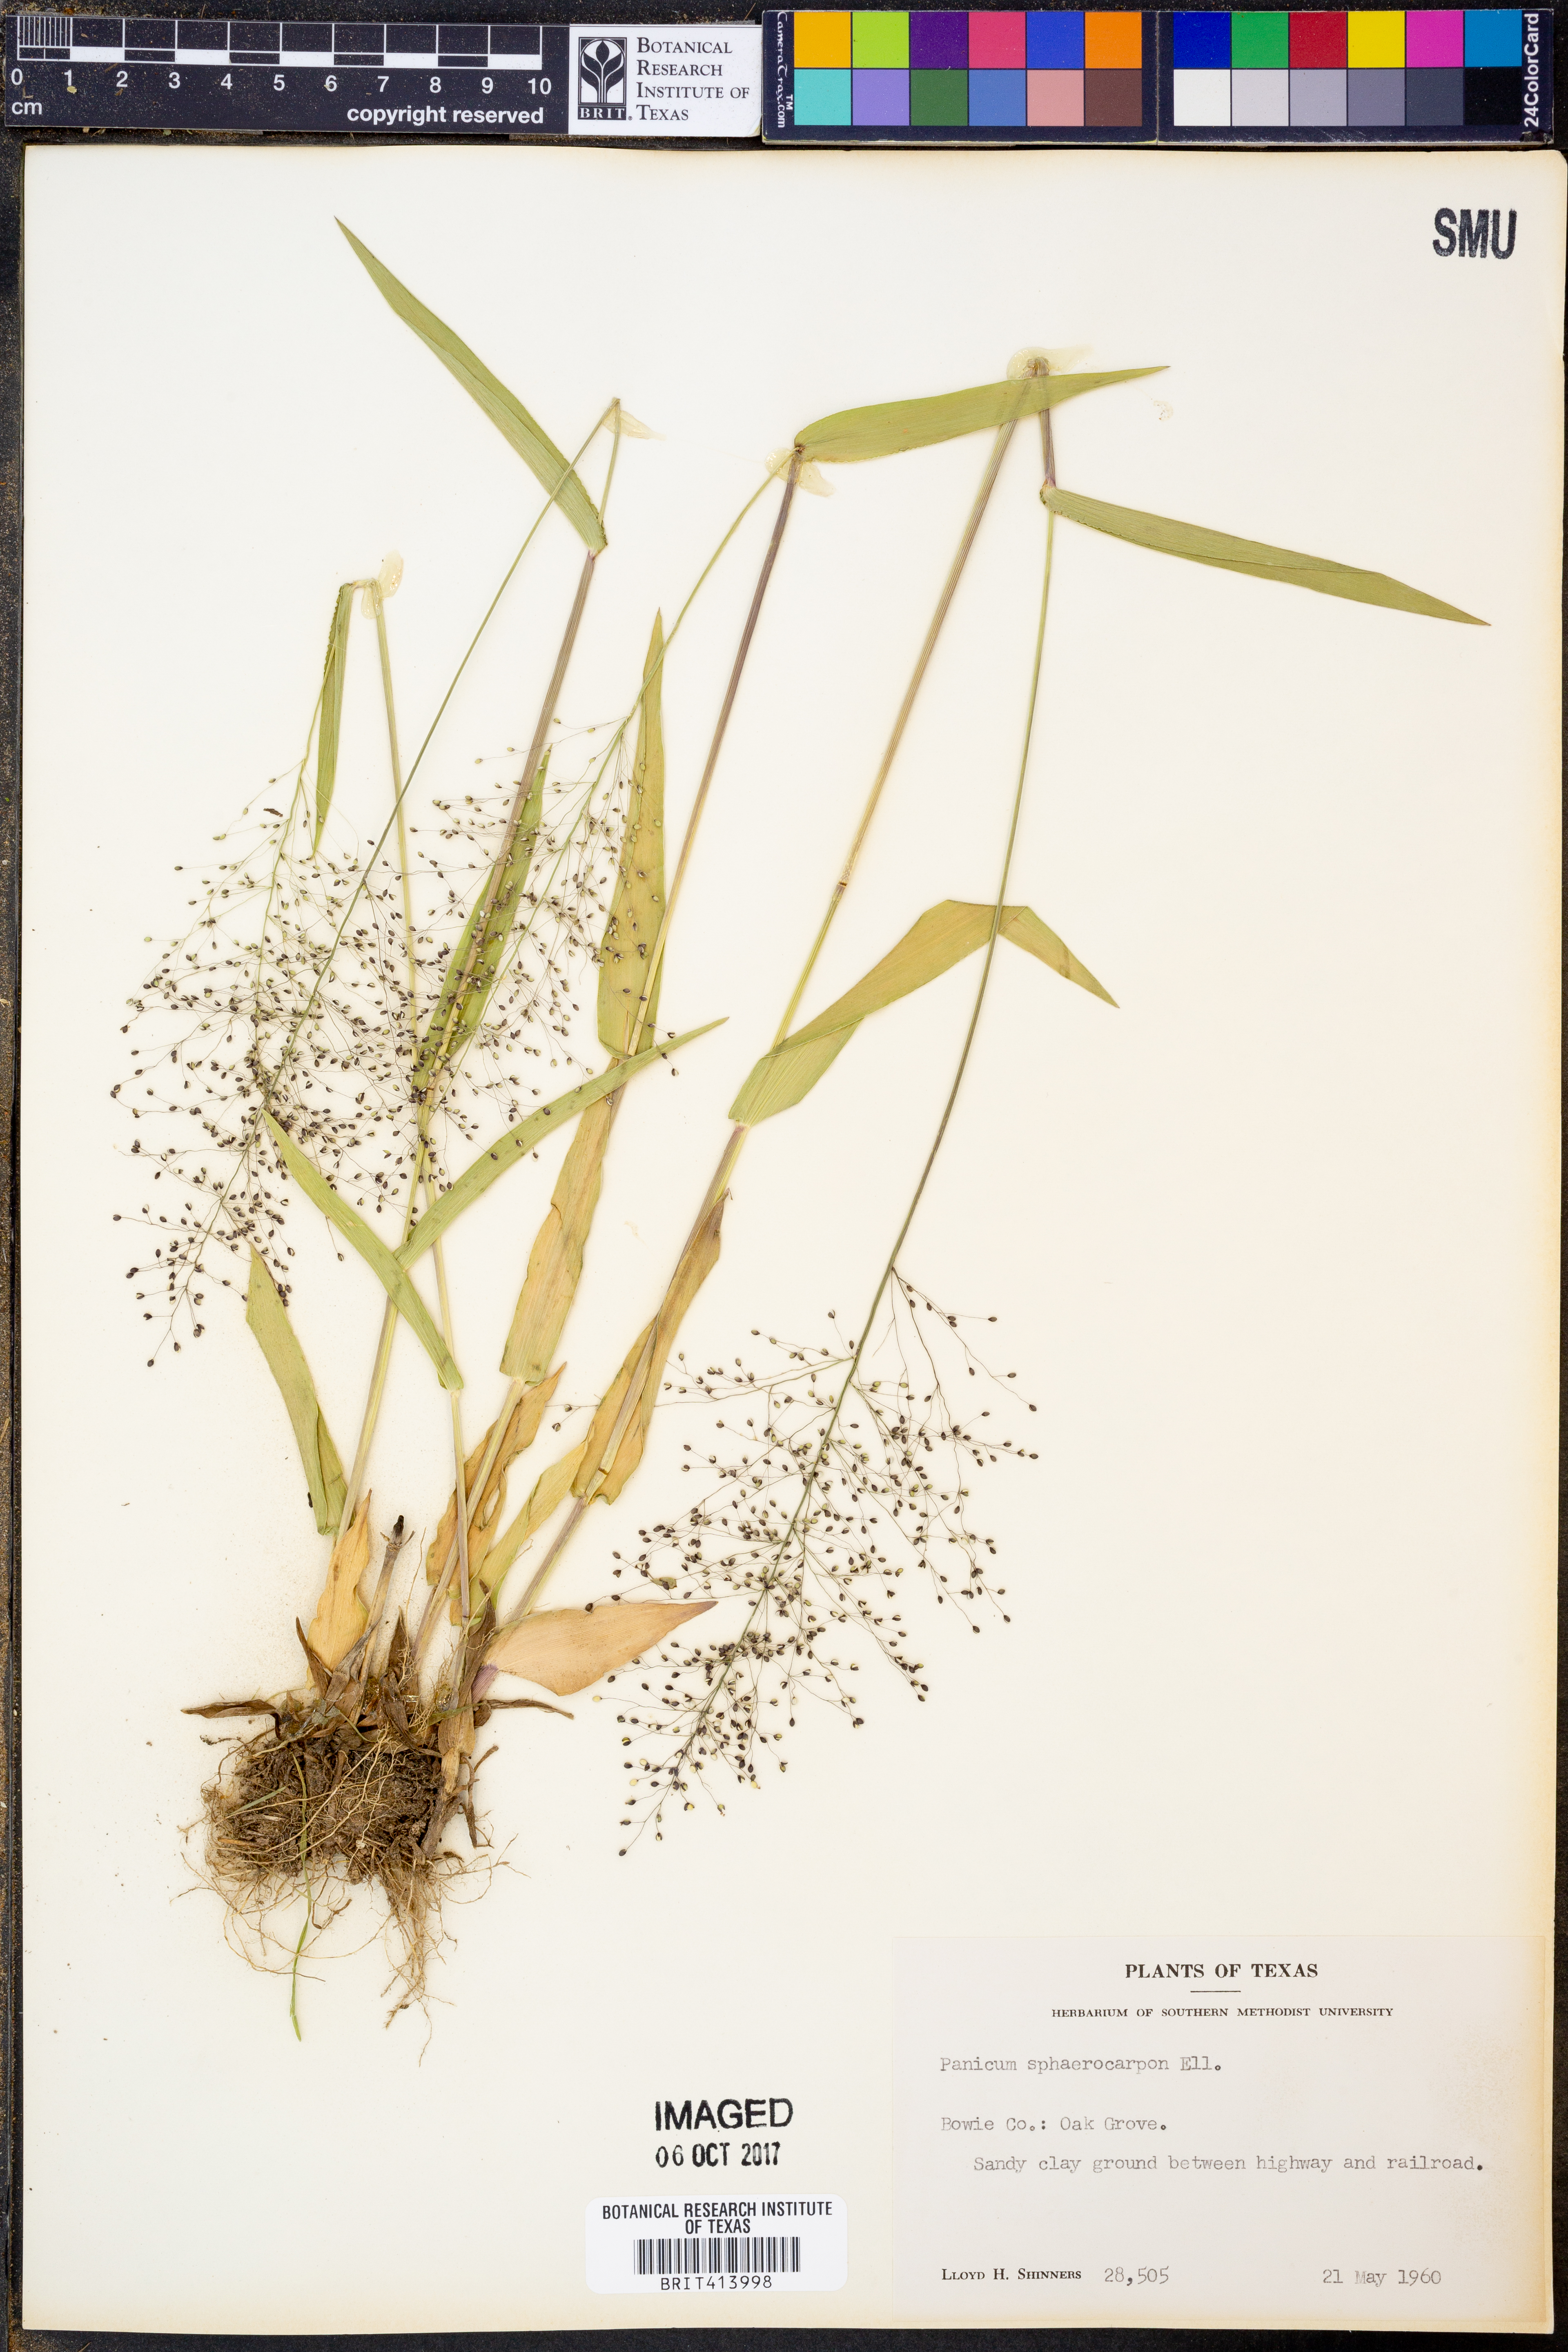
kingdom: Plantae
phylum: Tracheophyta
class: Liliopsida
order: Poales
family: Poaceae
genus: Dichanthelium
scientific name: Dichanthelium sphaerocarpon
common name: Round-fruited panicgrass
